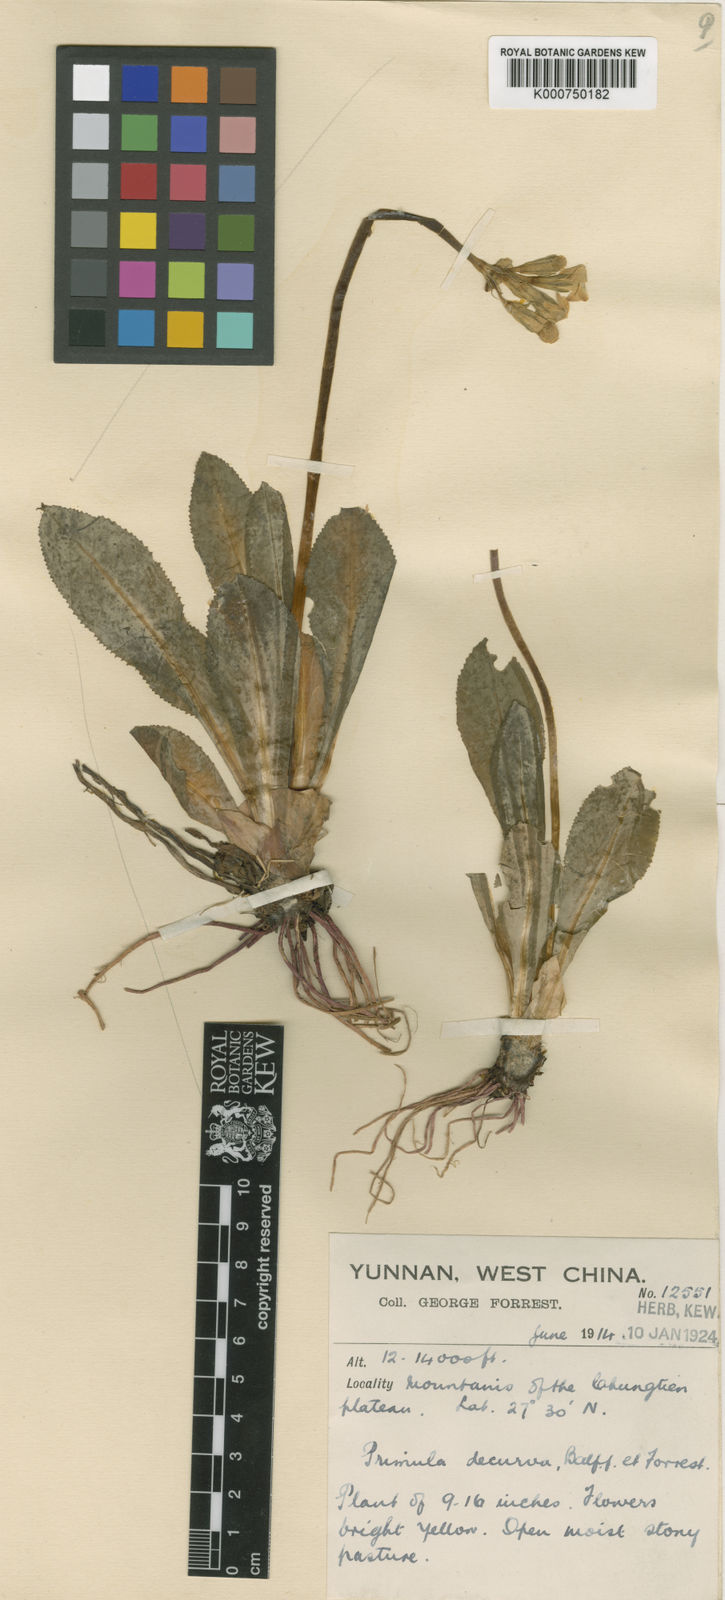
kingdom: Plantae
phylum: Tracheophyta
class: Magnoliopsida
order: Ericales
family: Primulaceae
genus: Primula
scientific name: Primula szechuanica
